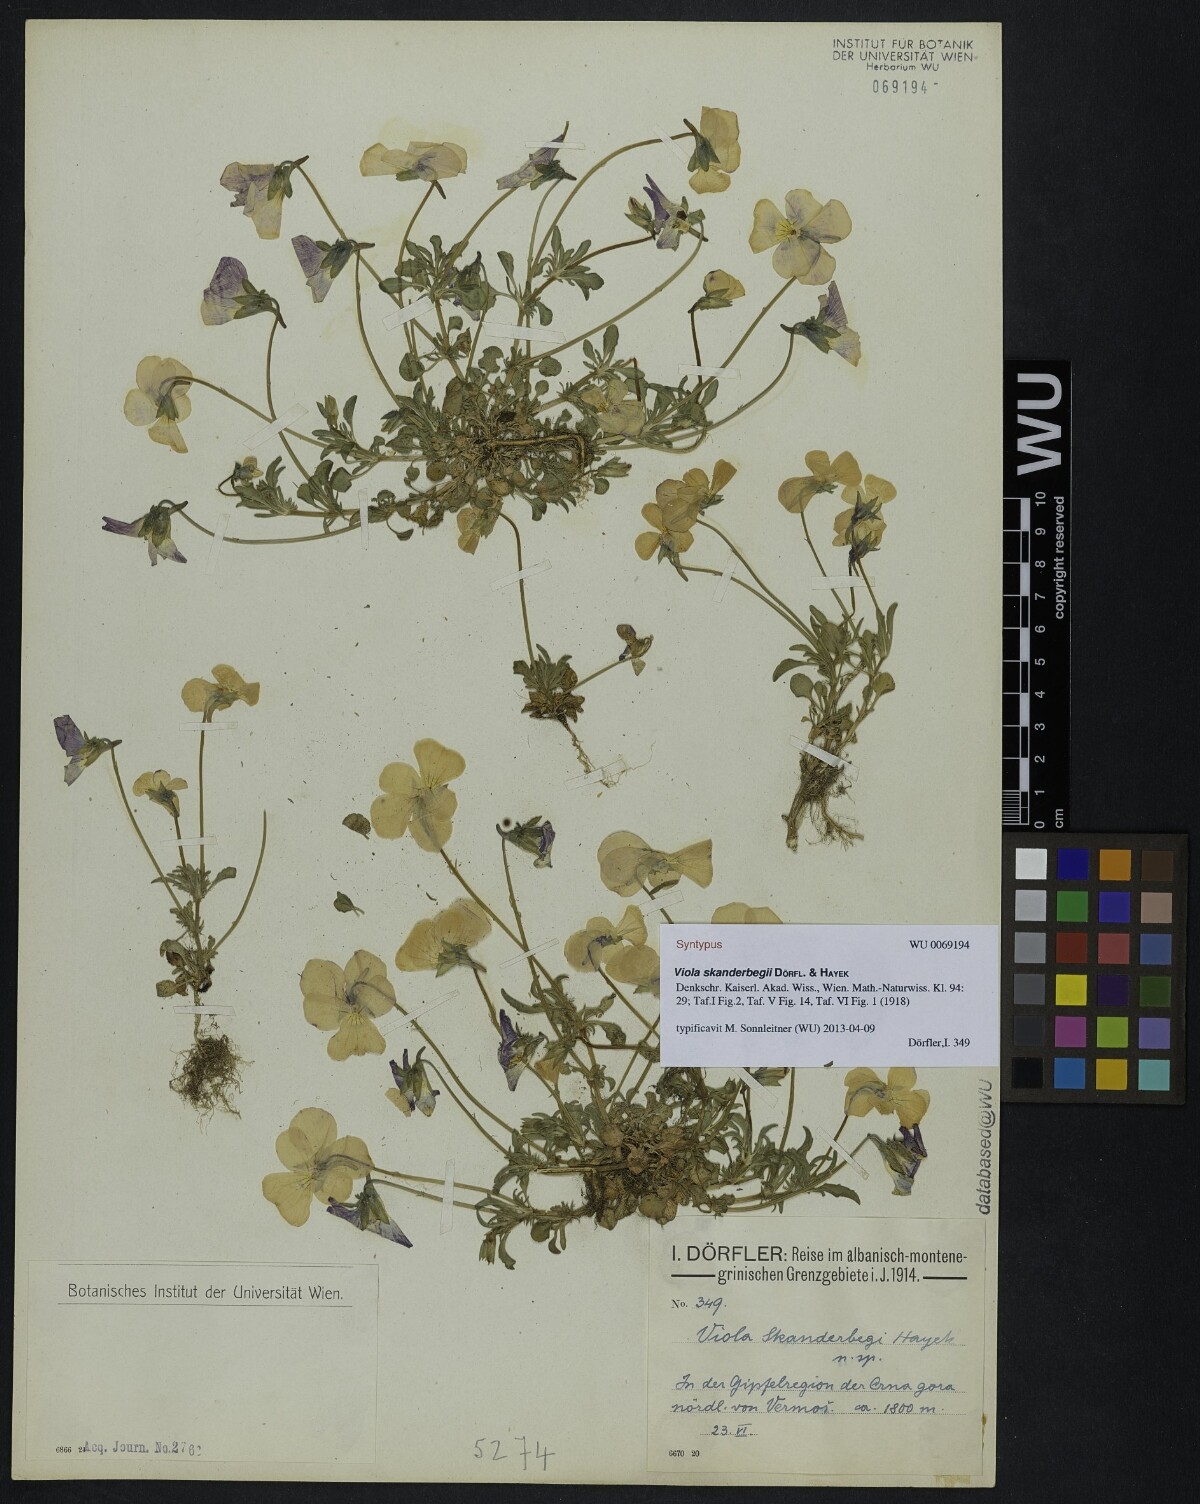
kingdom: Plantae
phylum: Tracheophyta
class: Magnoliopsida
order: Malpighiales
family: Violaceae
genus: Viola
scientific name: Viola skanderbegii
